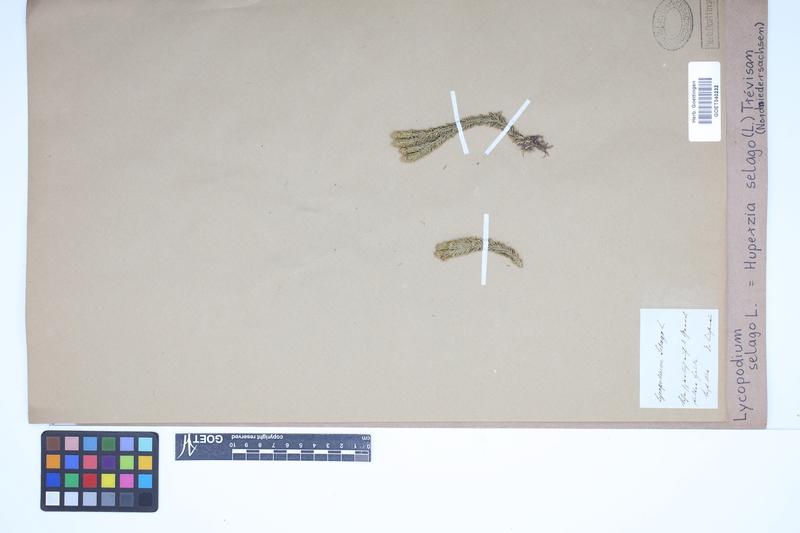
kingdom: Plantae
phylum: Tracheophyta
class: Lycopodiopsida
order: Lycopodiales
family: Lycopodiaceae
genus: Huperzia
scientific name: Huperzia selago
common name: Northern firmoss
